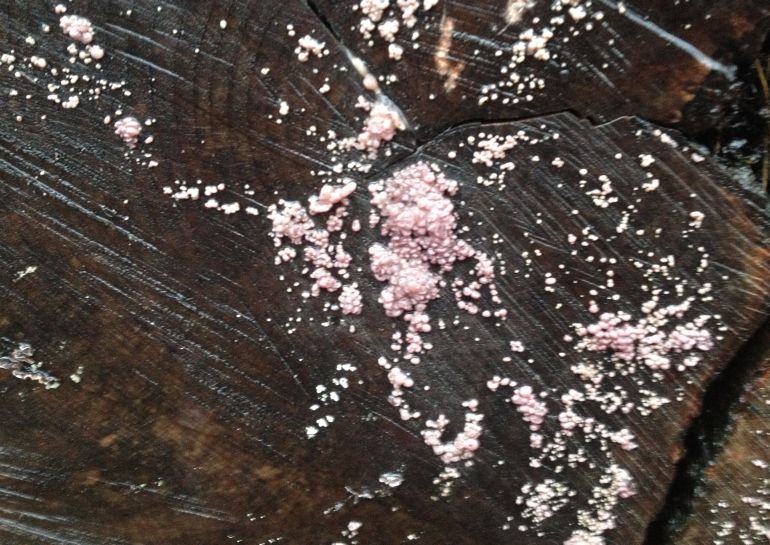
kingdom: Fungi
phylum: Ascomycota
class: Leotiomycetes
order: Helotiales
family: Gelatinodiscaceae
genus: Ascocoryne
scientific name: Ascocoryne sarcoides
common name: rødlilla sejskive
